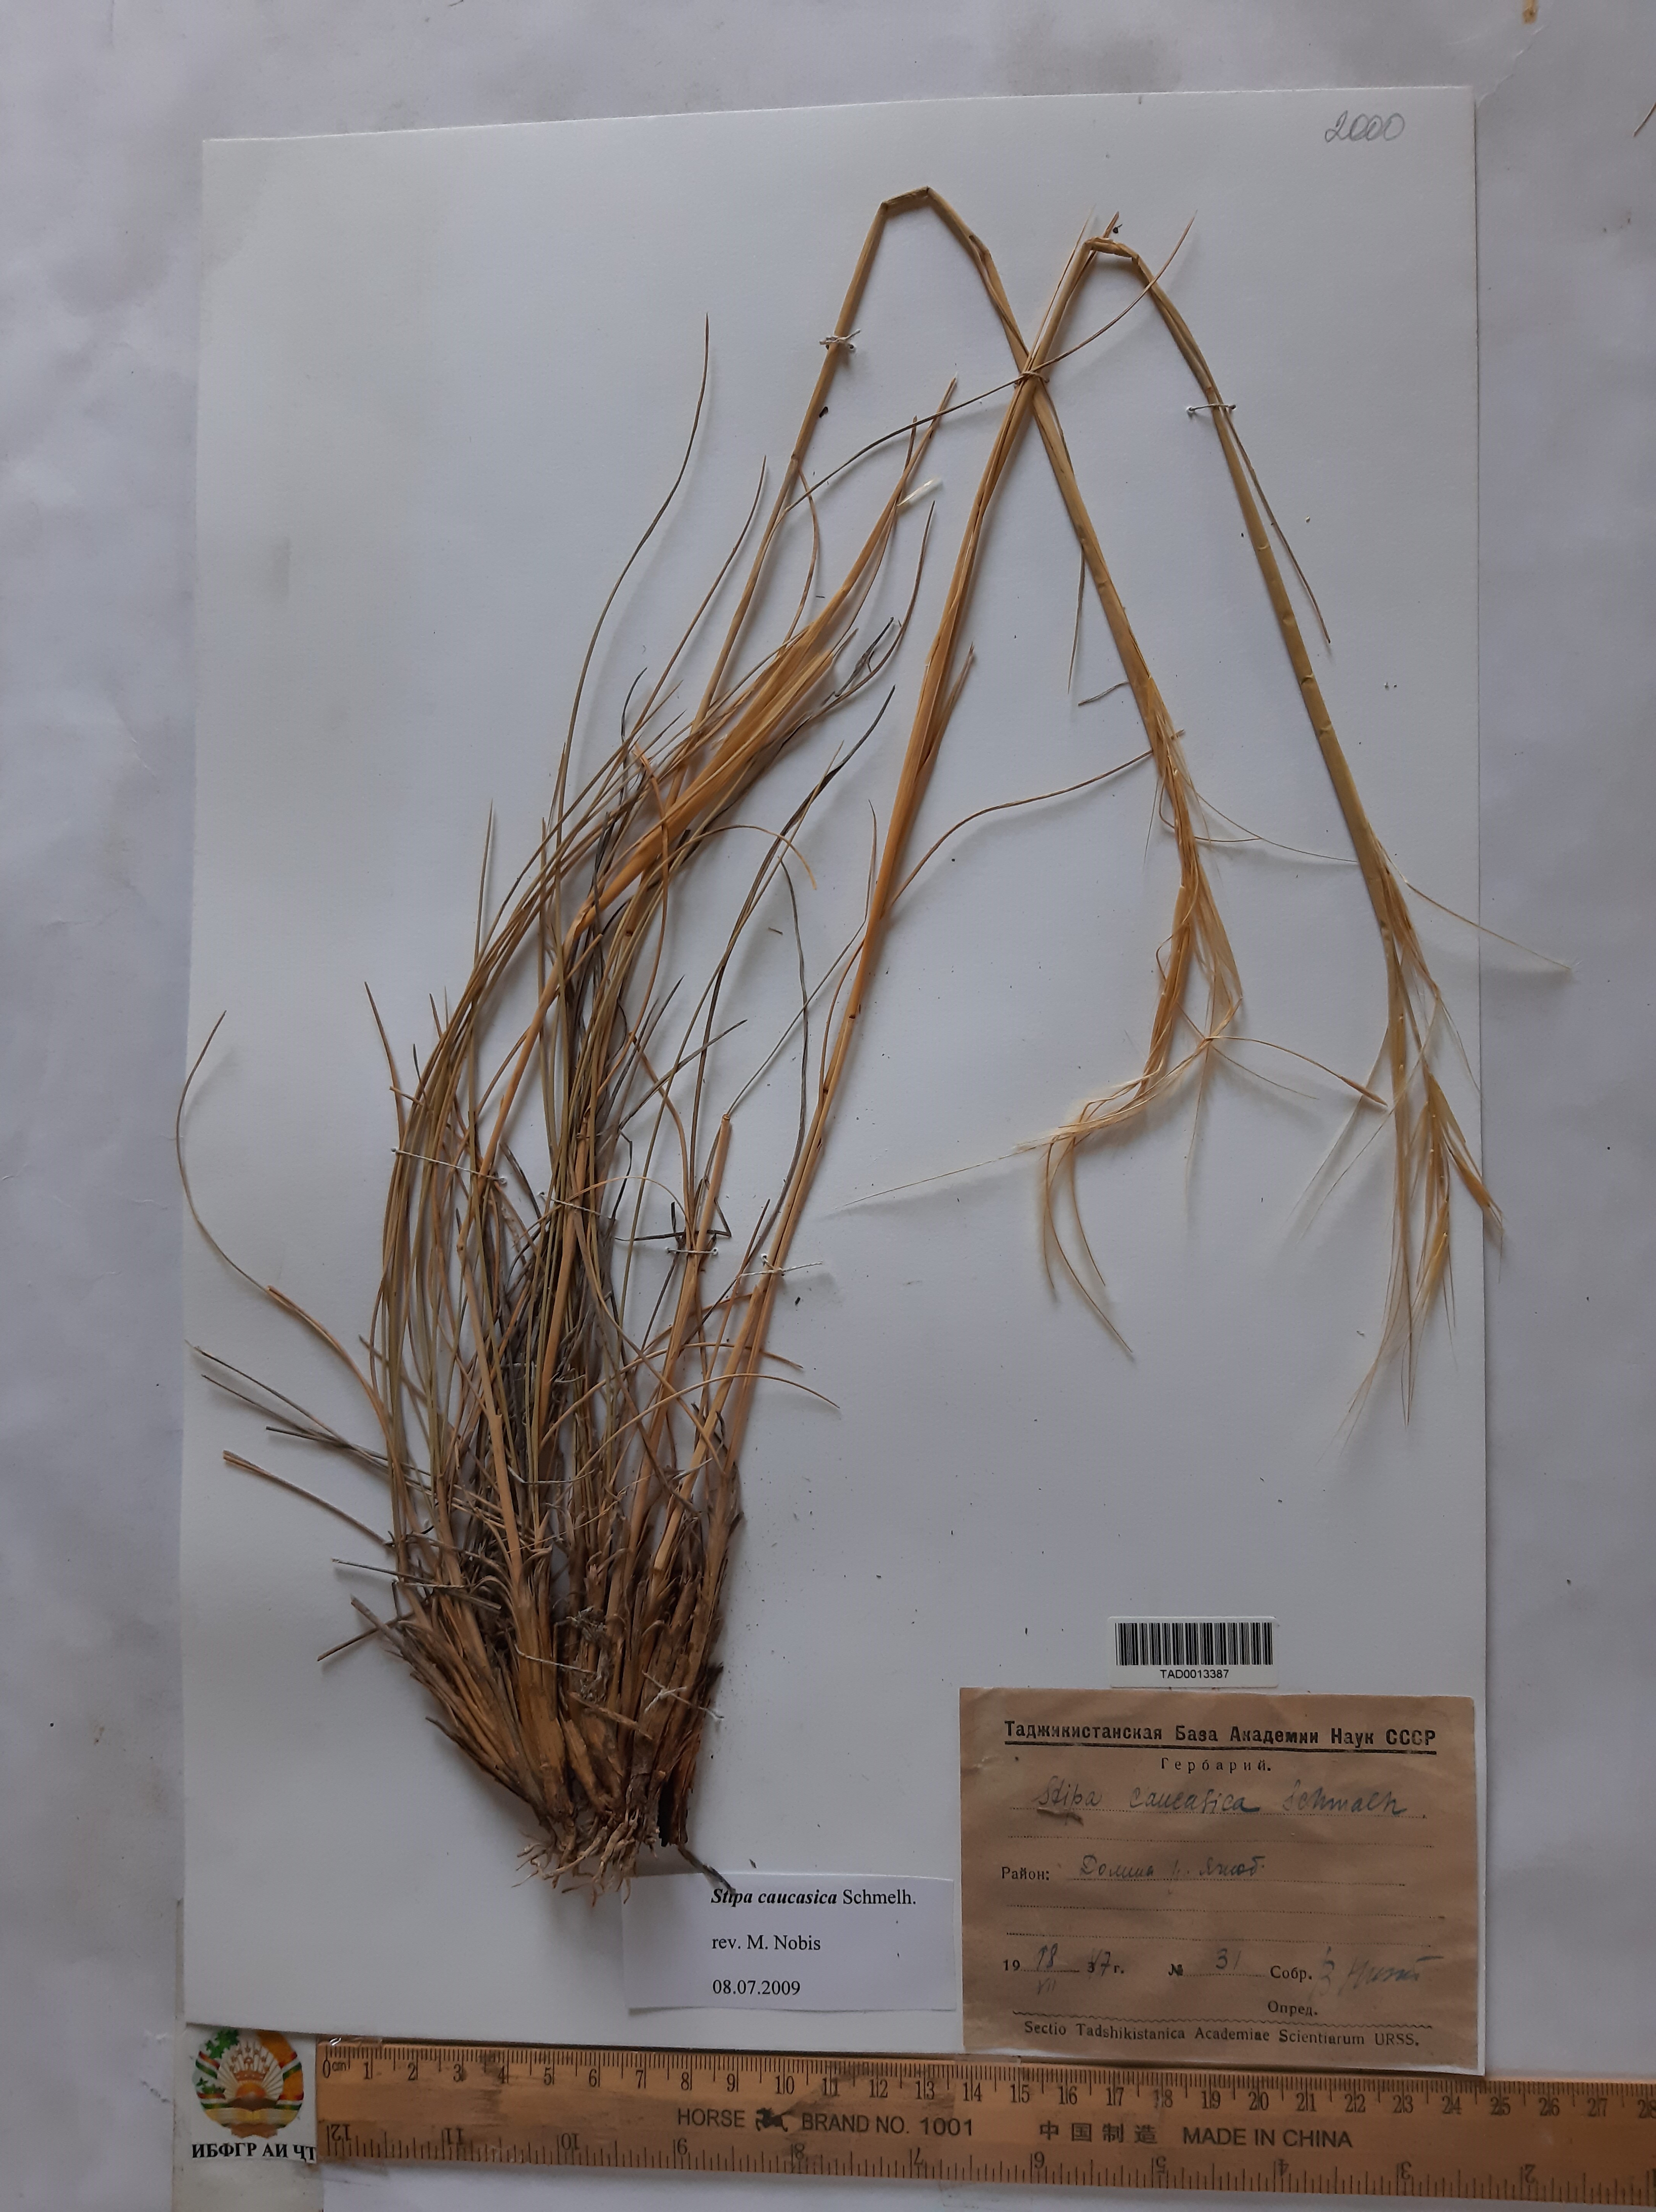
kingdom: Plantae
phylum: Tracheophyta
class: Liliopsida
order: Poales
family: Poaceae
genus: Stipa
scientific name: Stipa caucasica
